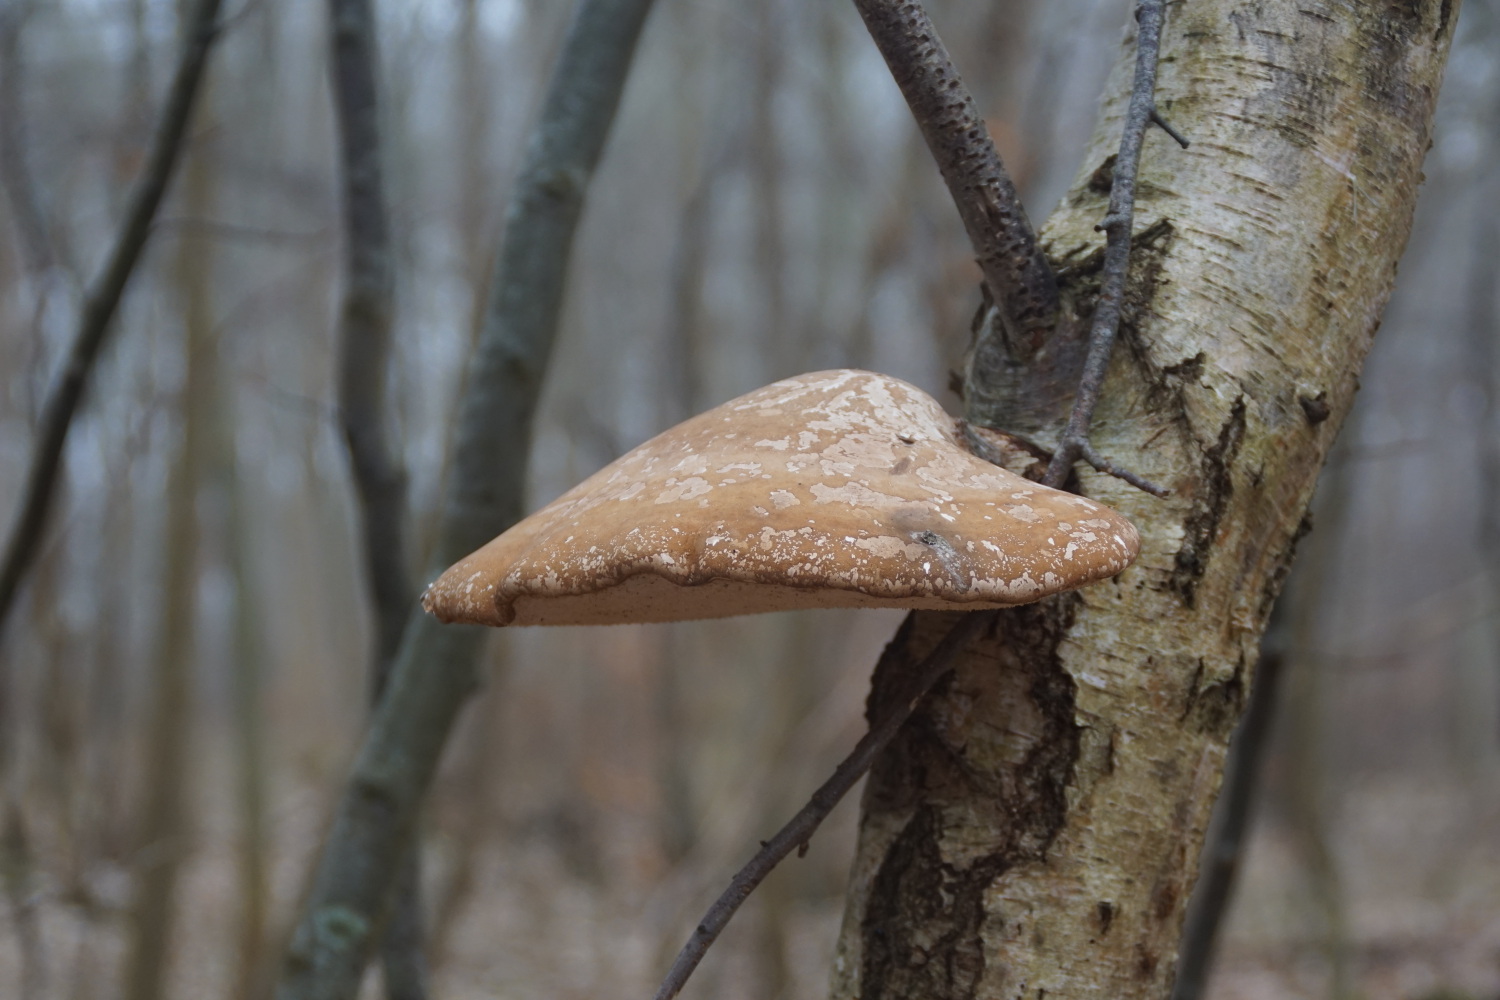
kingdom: Fungi
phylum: Basidiomycota
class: Agaricomycetes
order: Polyporales
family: Fomitopsidaceae
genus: Fomitopsis
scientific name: Fomitopsis betulina
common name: birkeporesvamp
